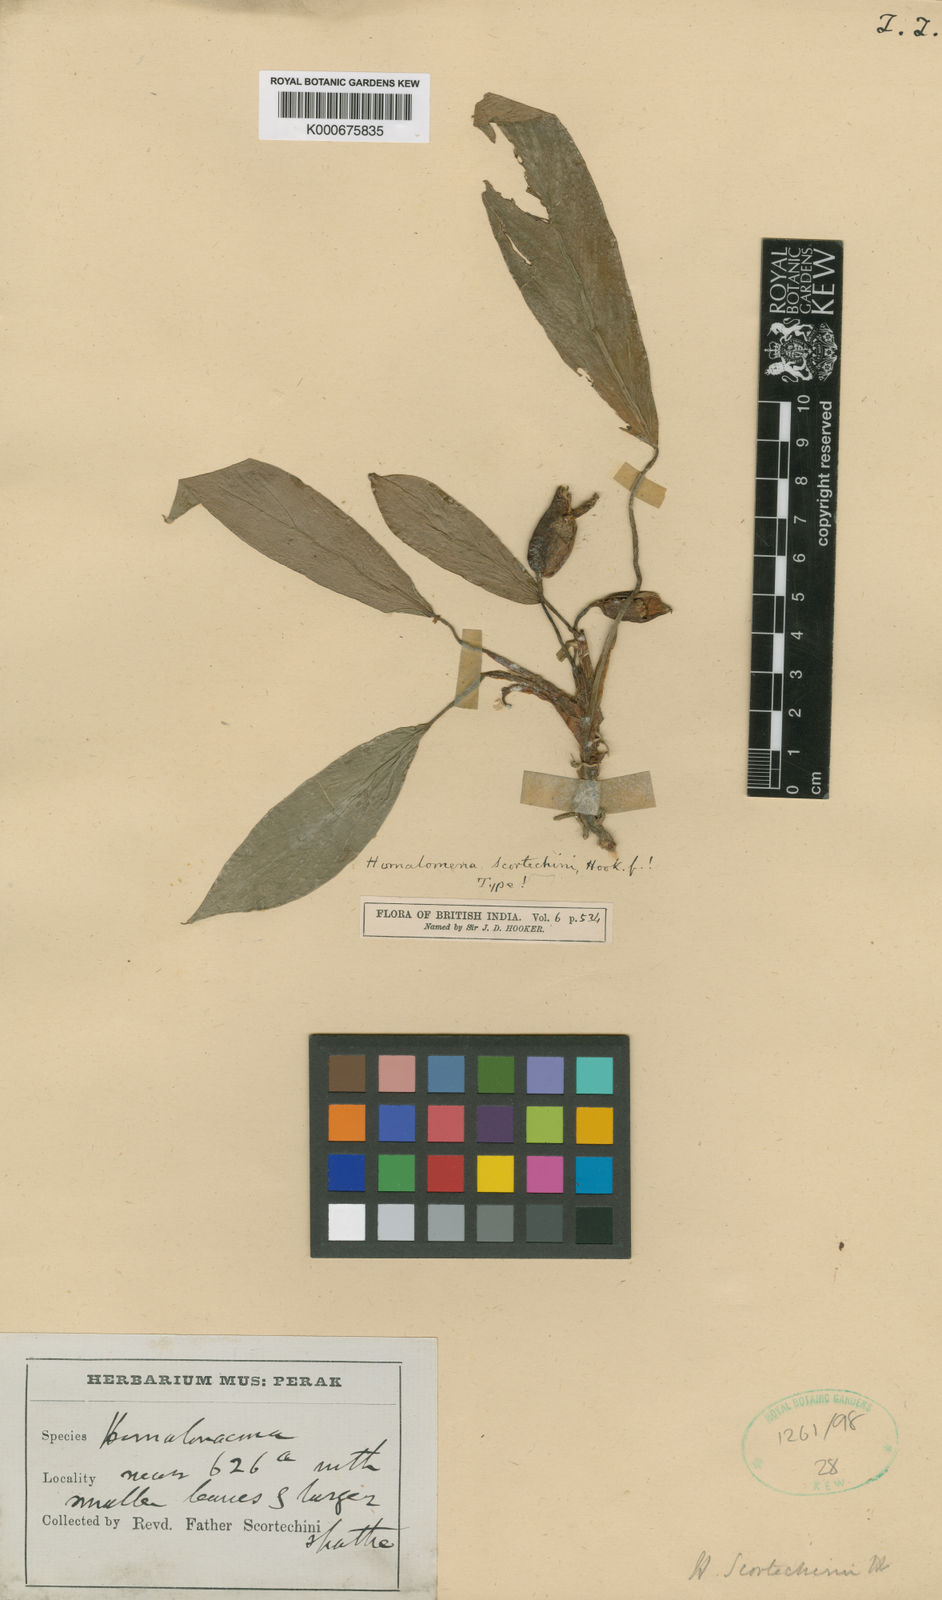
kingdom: Plantae
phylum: Tracheophyta
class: Liliopsida
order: Alismatales
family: Araceae
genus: Homalomena
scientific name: Homalomena scortechinii
